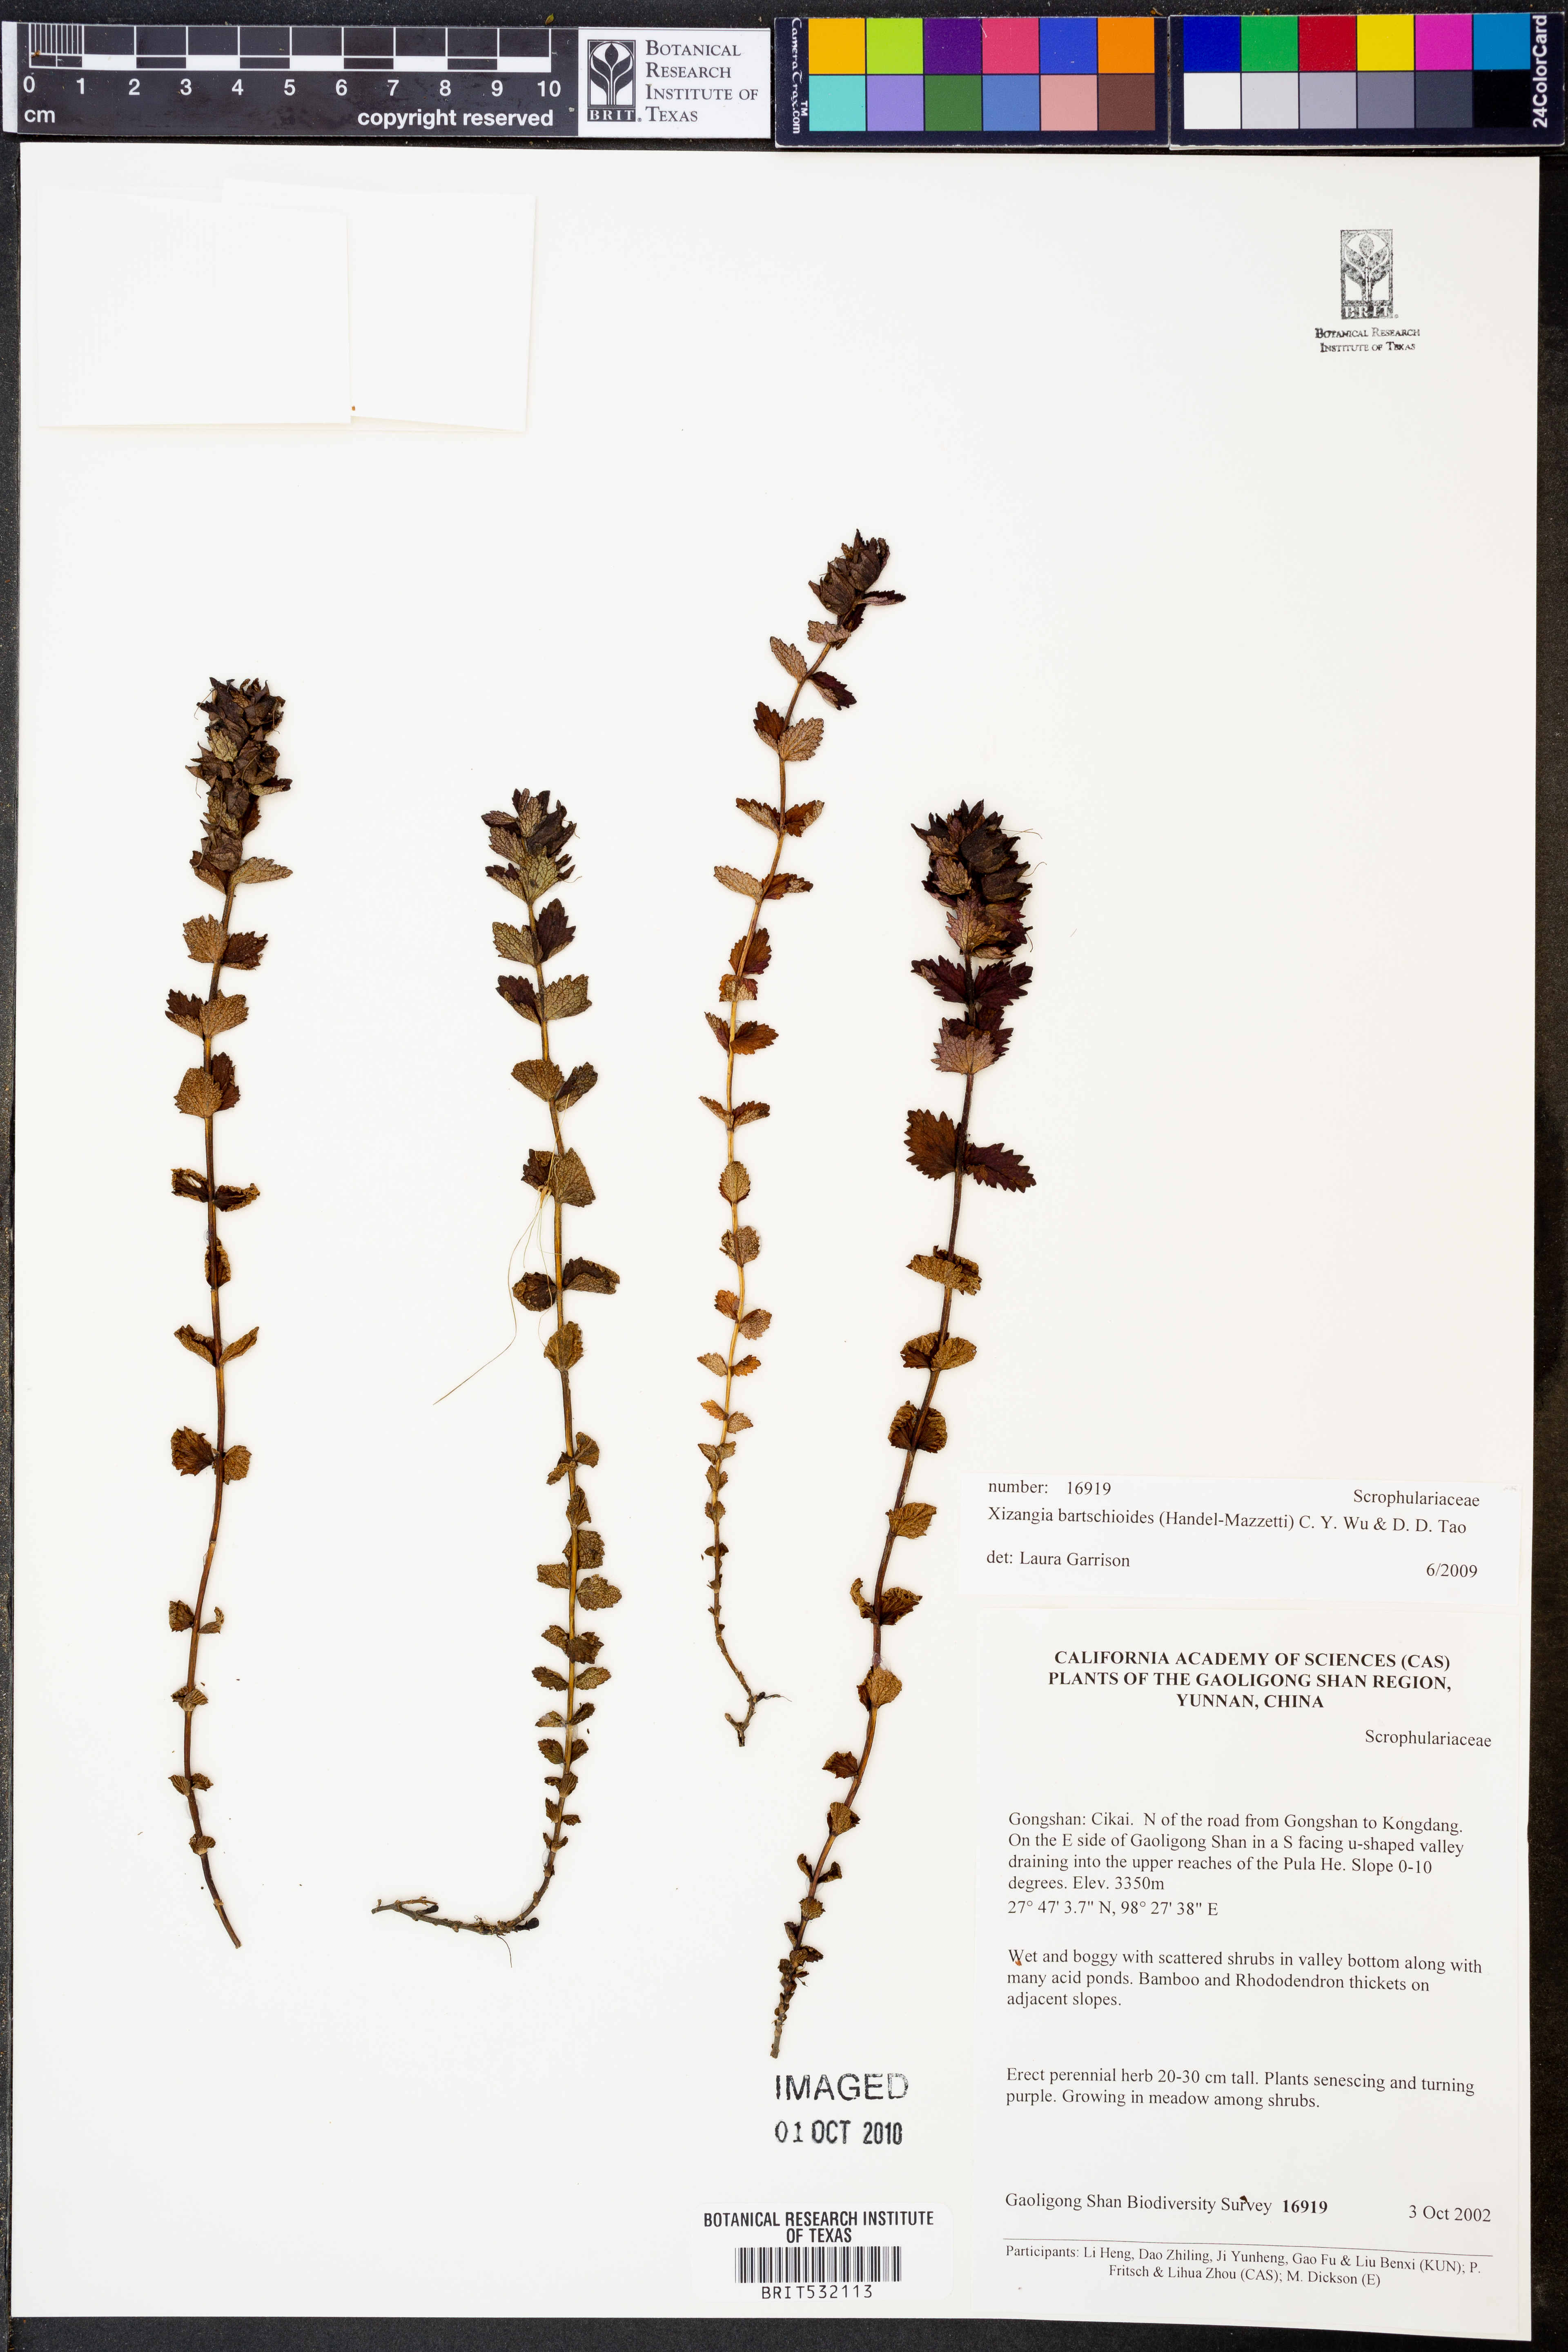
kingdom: Plantae
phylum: Tracheophyta
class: Magnoliopsida
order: Lamiales
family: Orobanchaceae
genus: Xizangia
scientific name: Xizangia bartsioides
